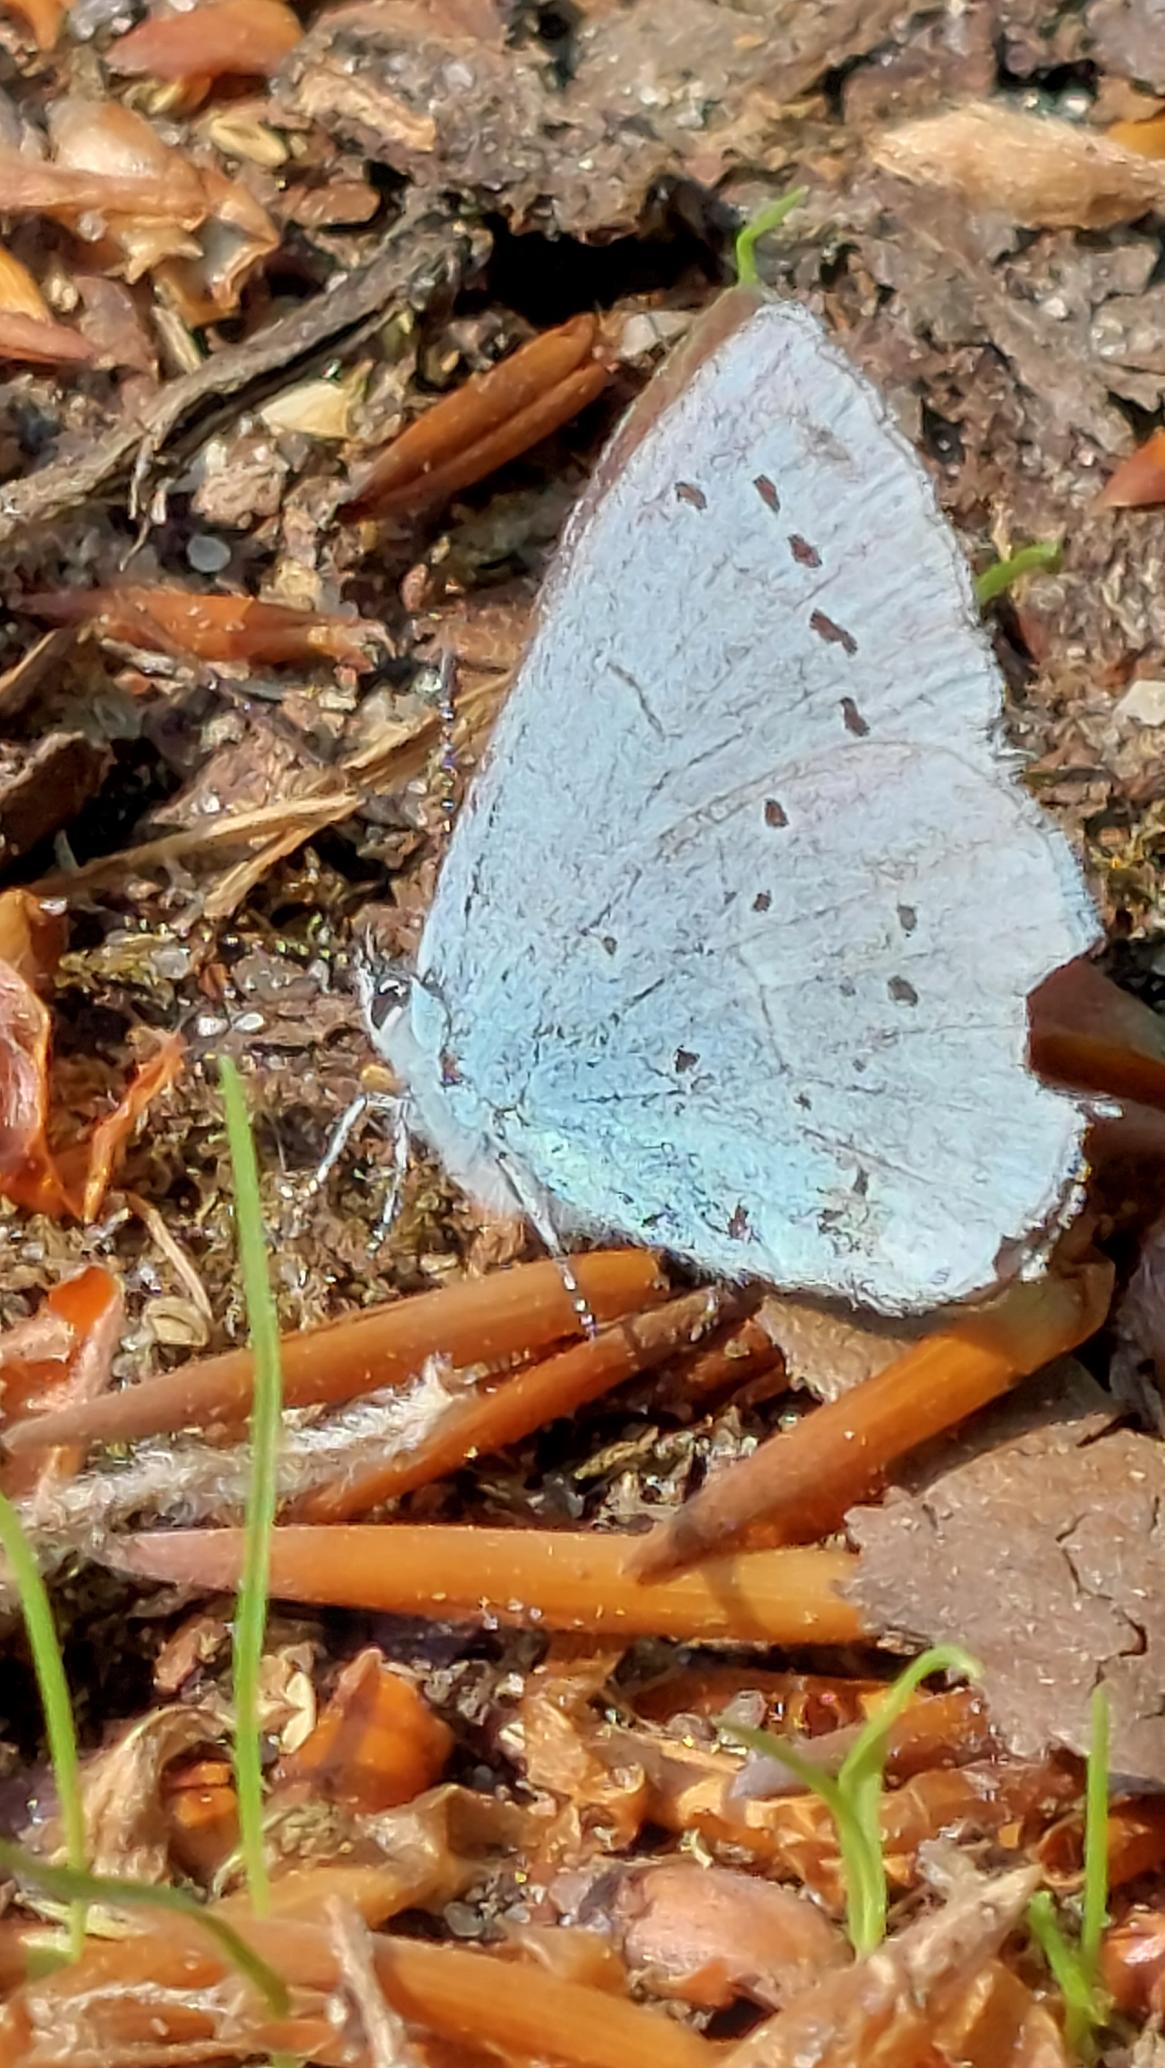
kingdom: Animalia
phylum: Arthropoda
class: Insecta
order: Lepidoptera
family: Lycaenidae
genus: Celastrina
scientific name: Celastrina argiolus
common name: Skovblåfugl
